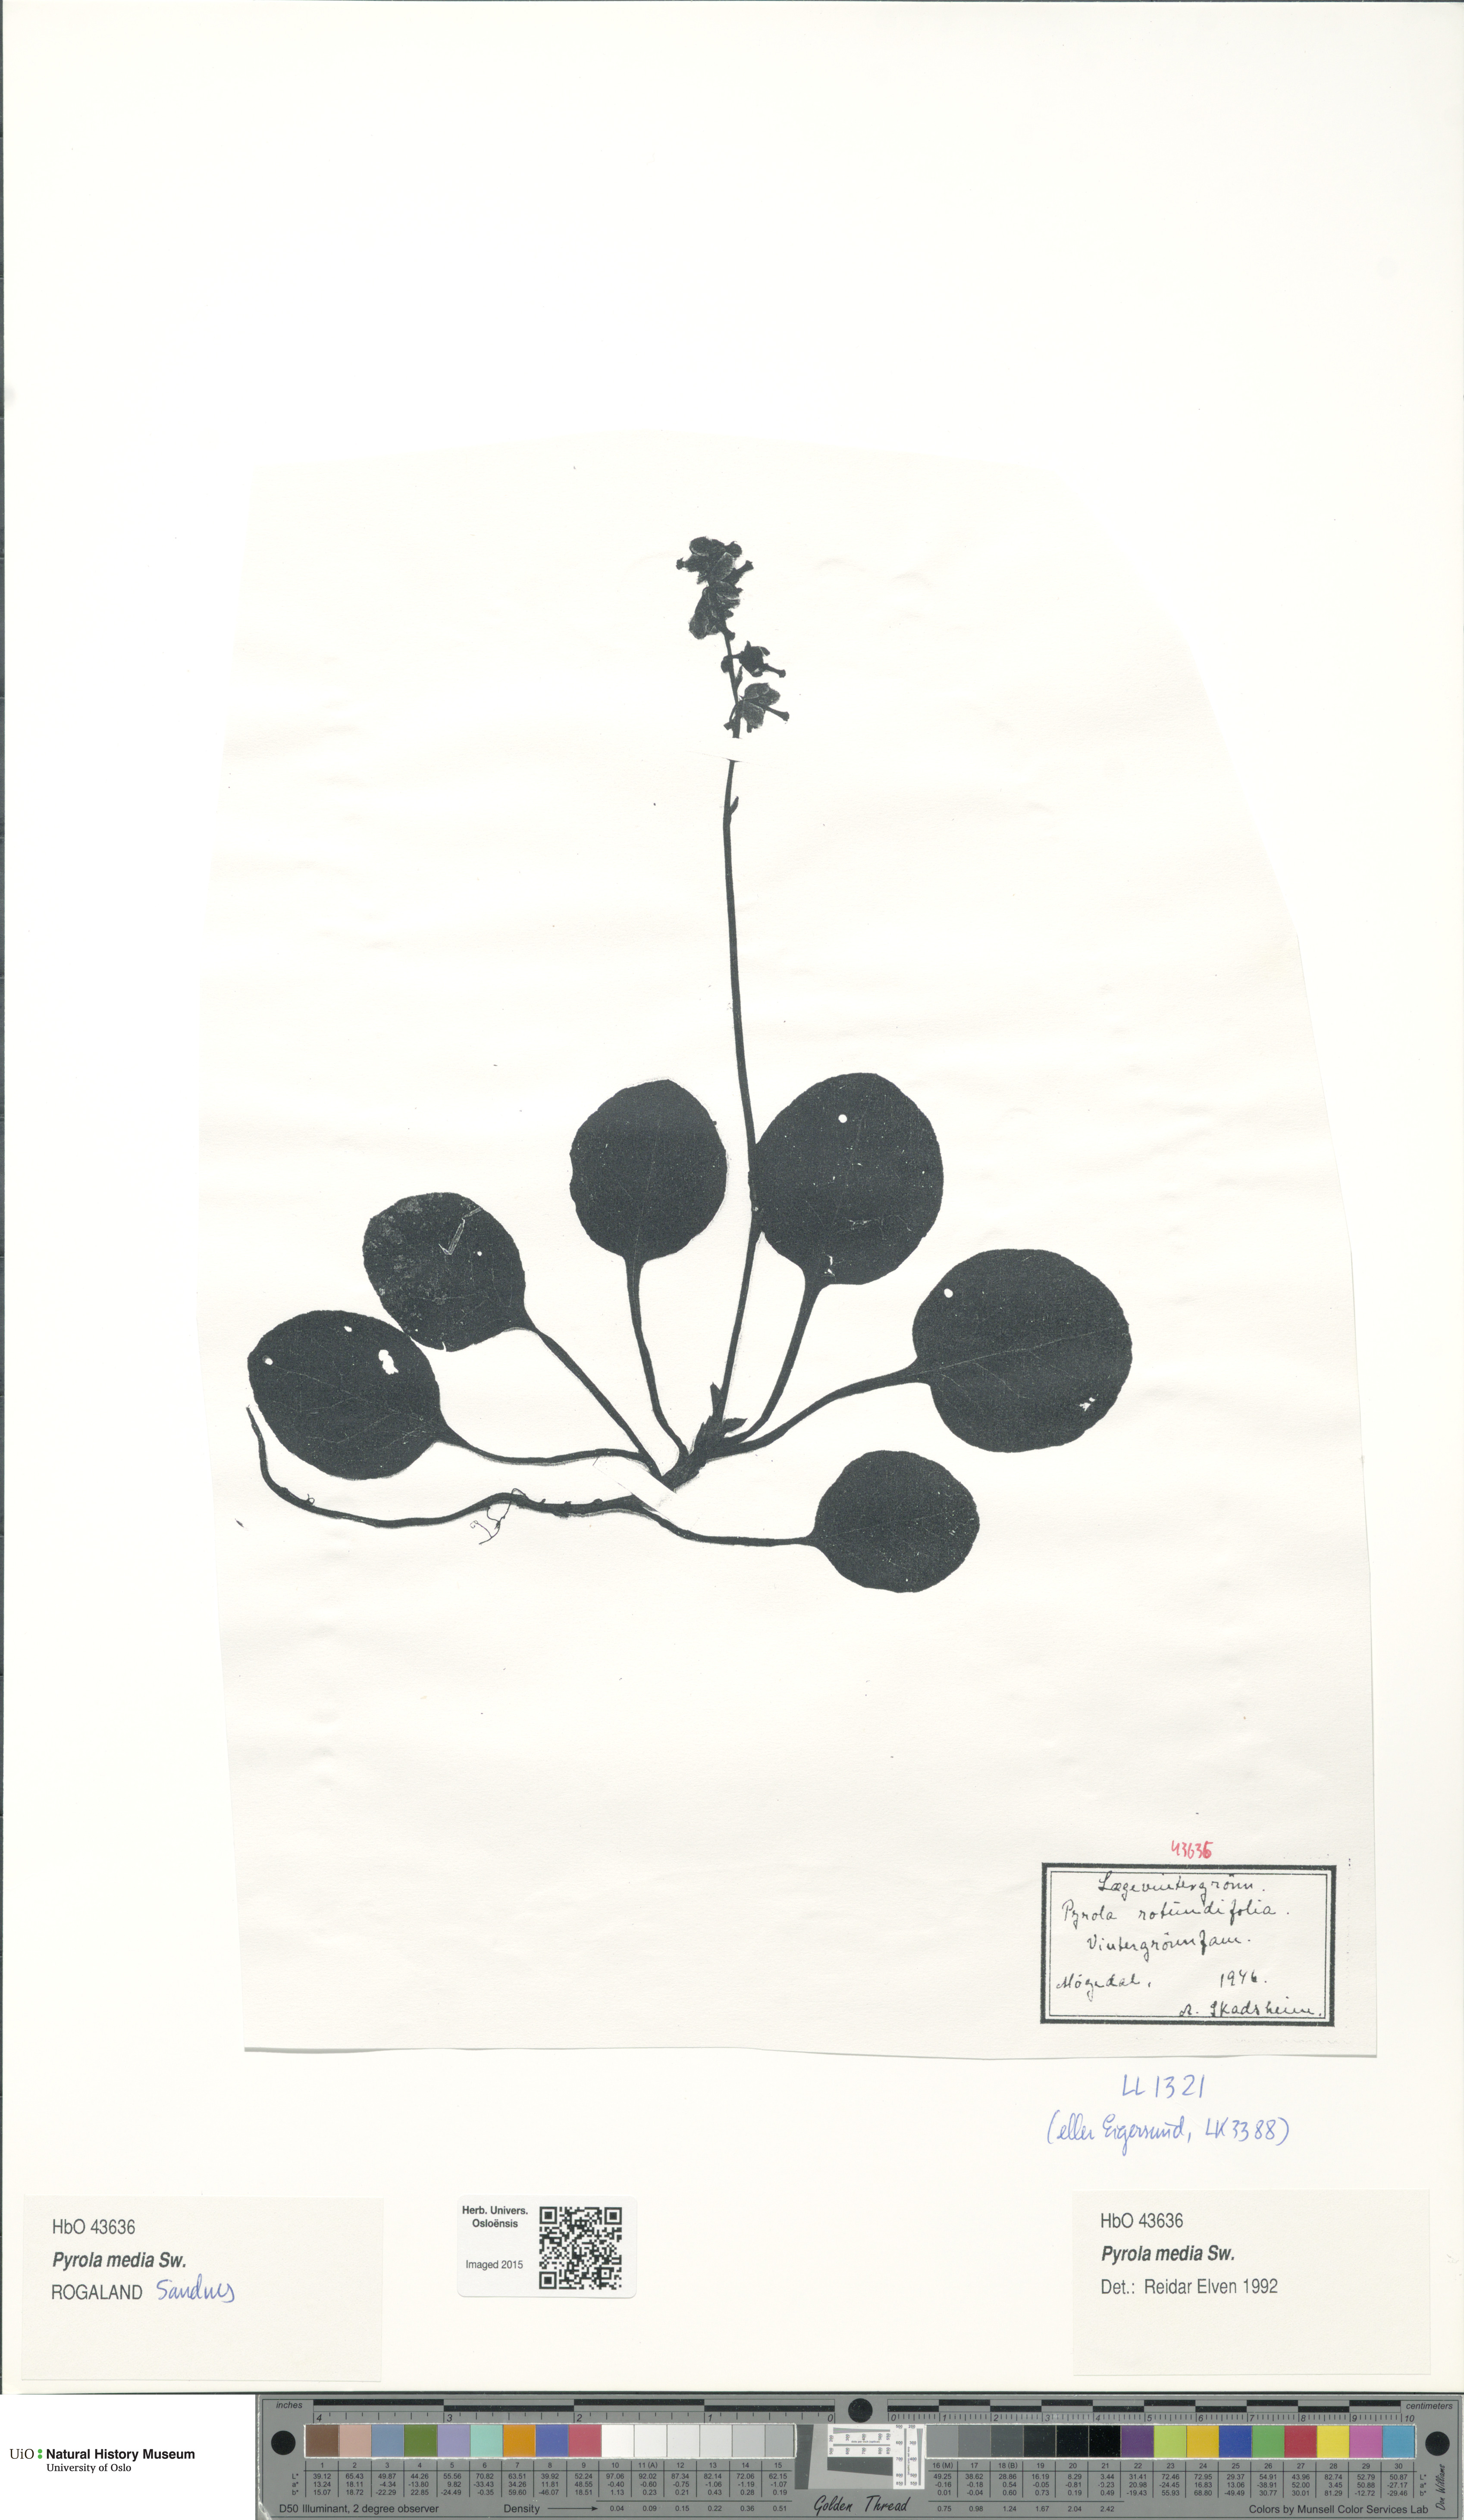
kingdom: Plantae
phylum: Tracheophyta
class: Magnoliopsida
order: Ericales
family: Ericaceae
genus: Pyrola
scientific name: Pyrola media
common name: Intermediate wintergreen
